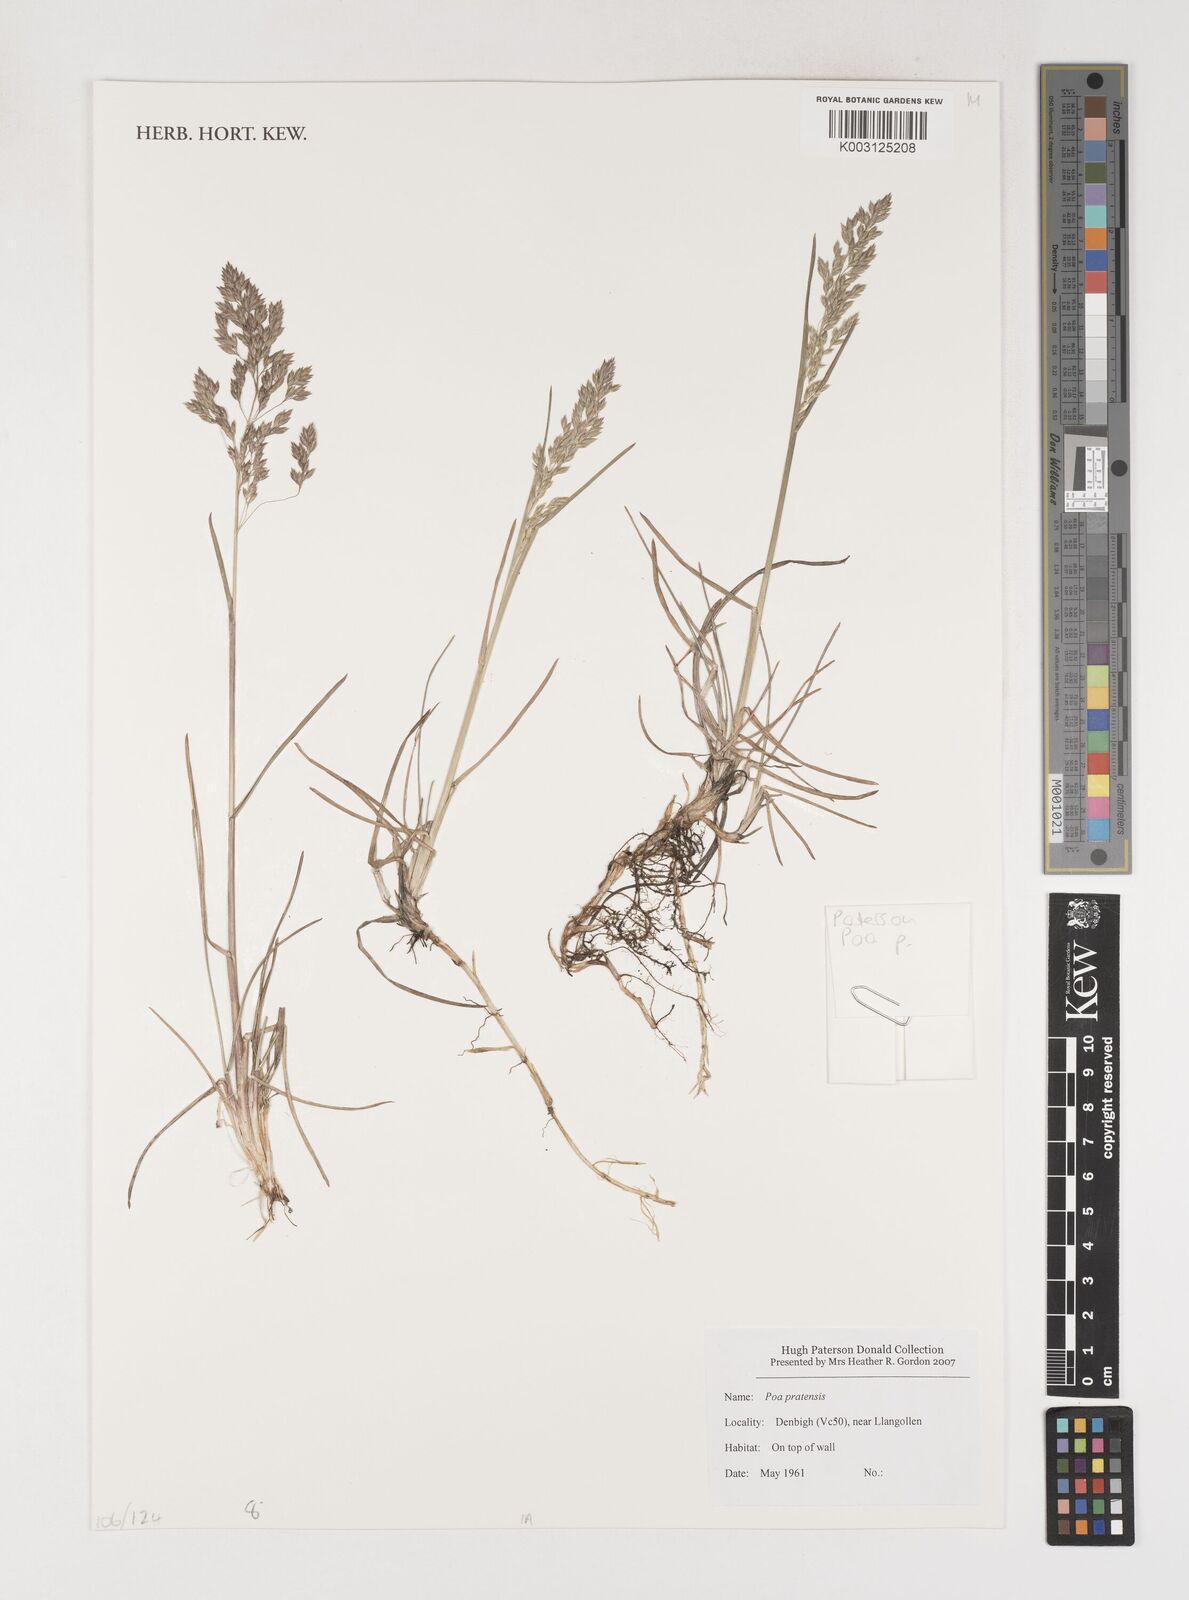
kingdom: Plantae
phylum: Tracheophyta
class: Liliopsida
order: Poales
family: Poaceae
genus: Poa
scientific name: Poa pratensis
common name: Kentucky bluegrass
